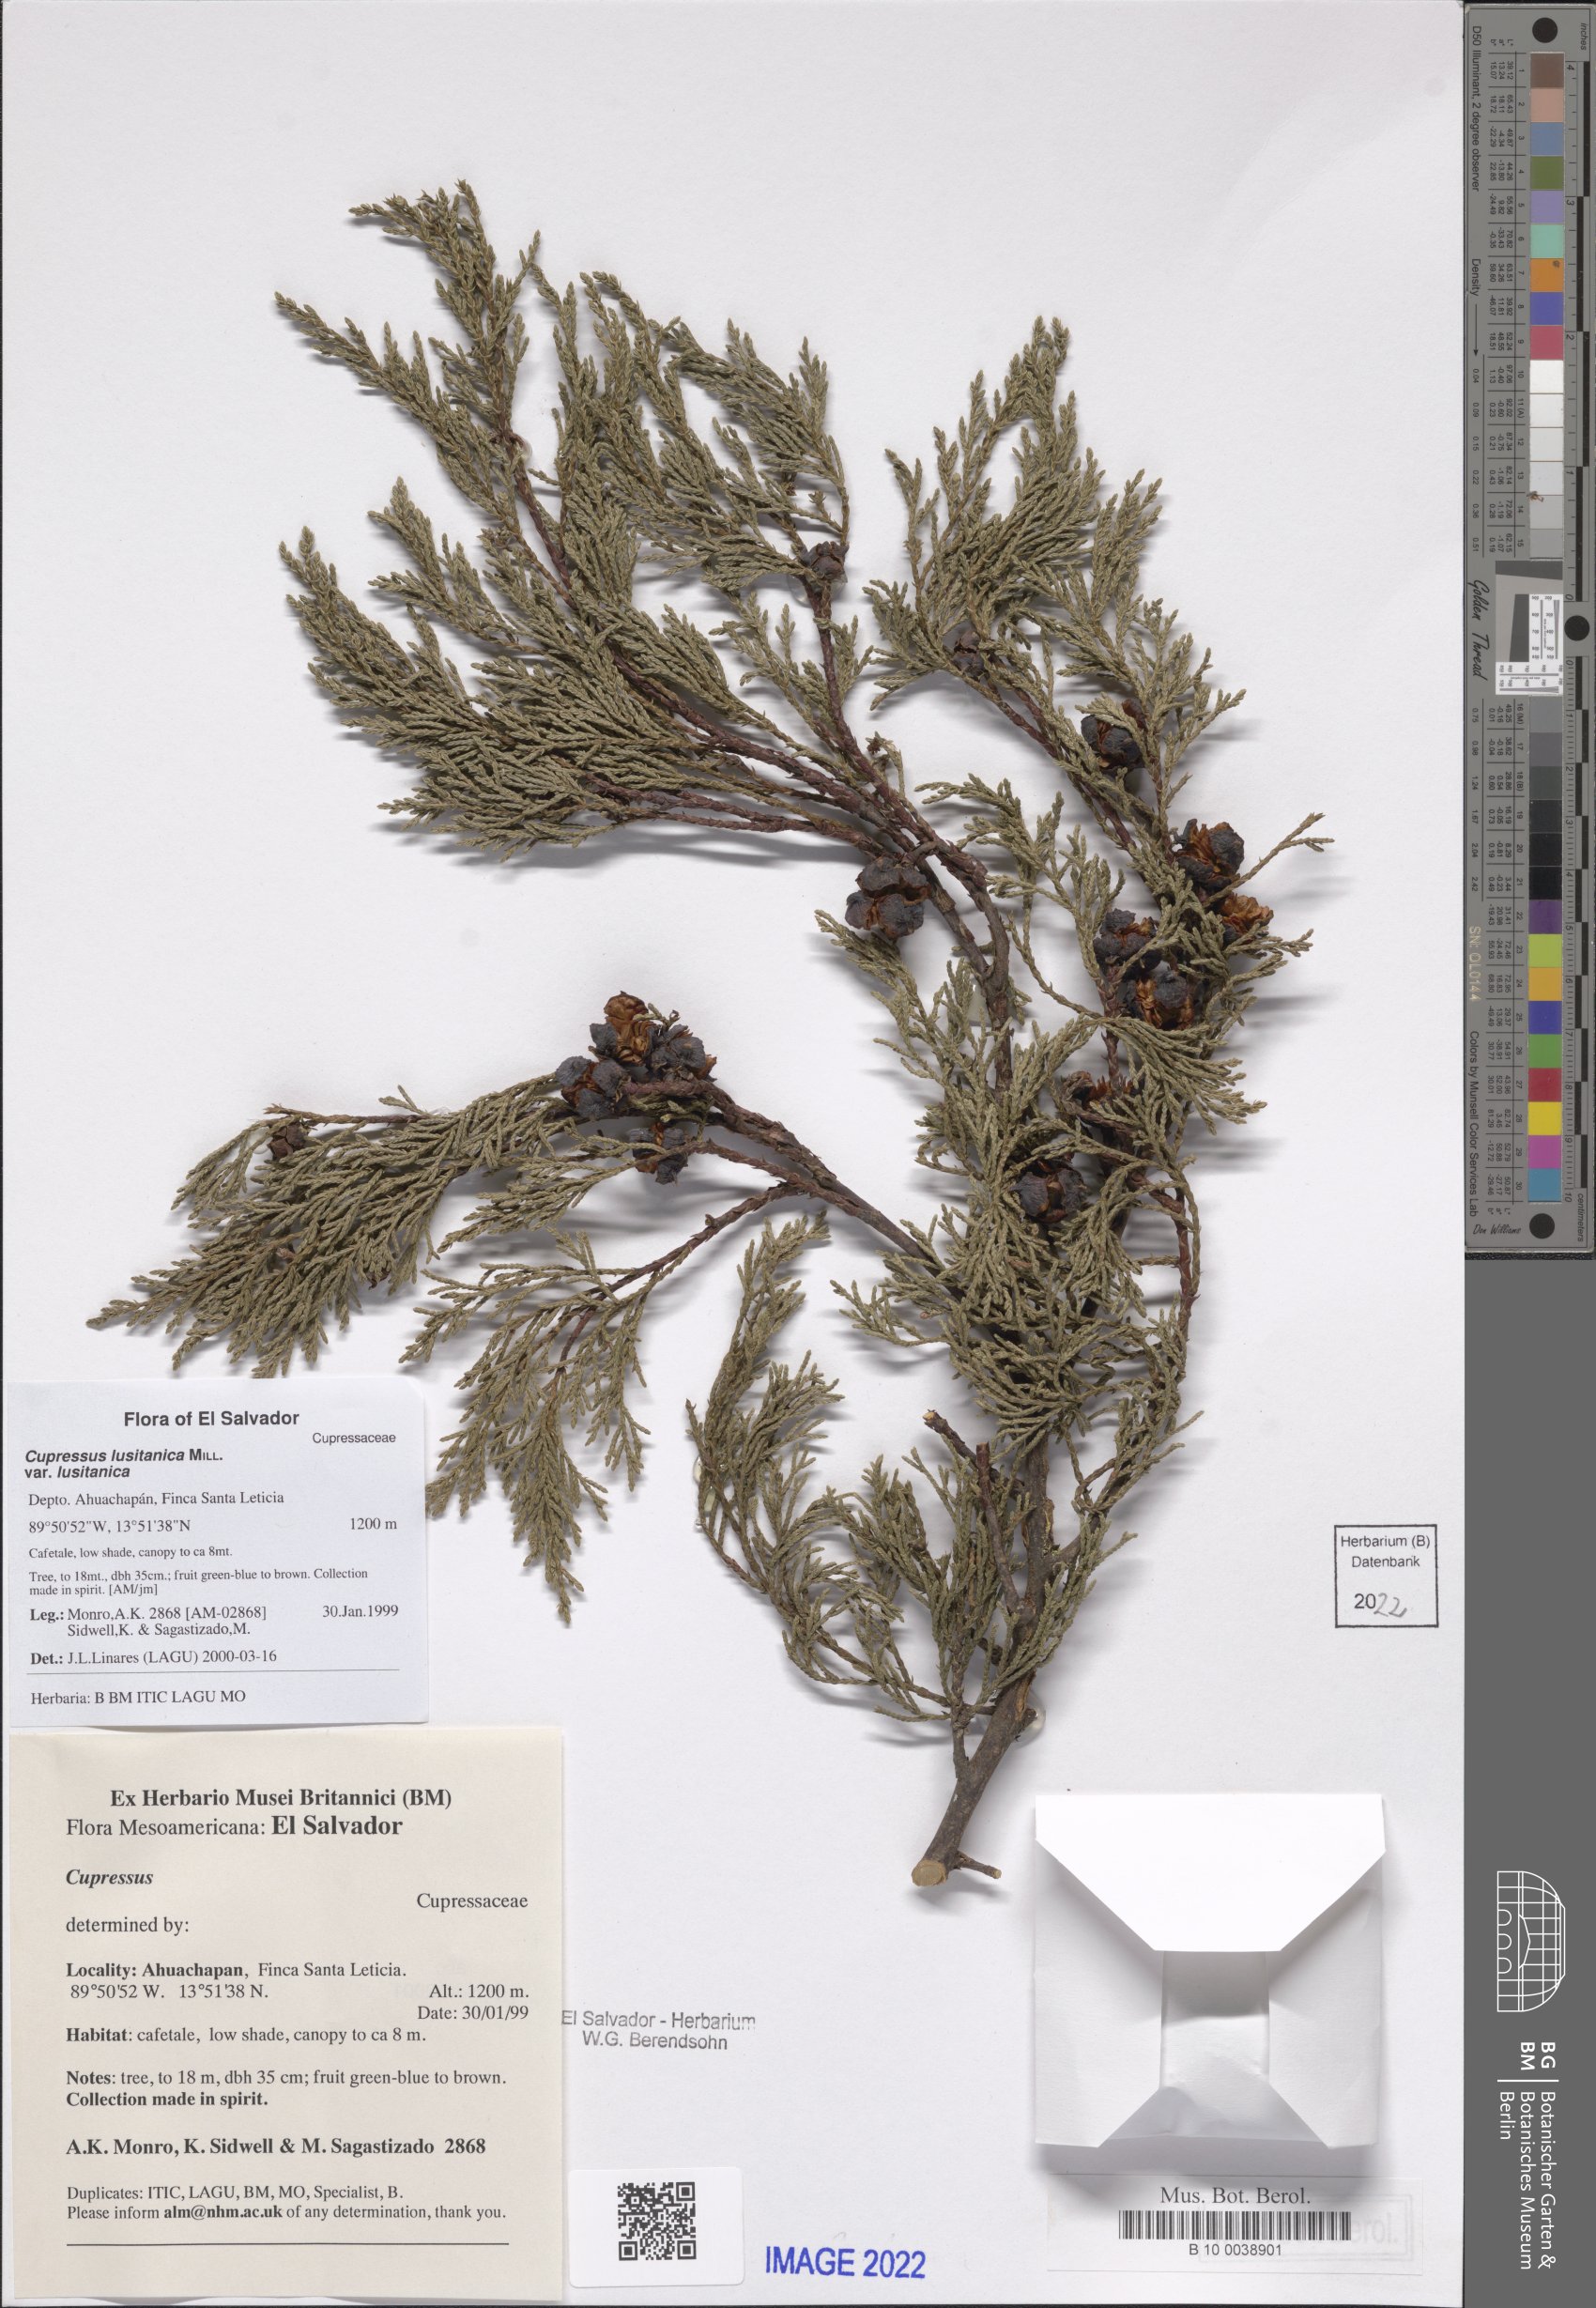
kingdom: Plantae
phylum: Tracheophyta
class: Pinopsida
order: Pinales
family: Cupressaceae
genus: Cupressus
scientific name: Cupressus lusitanica
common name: Mexican cypress
